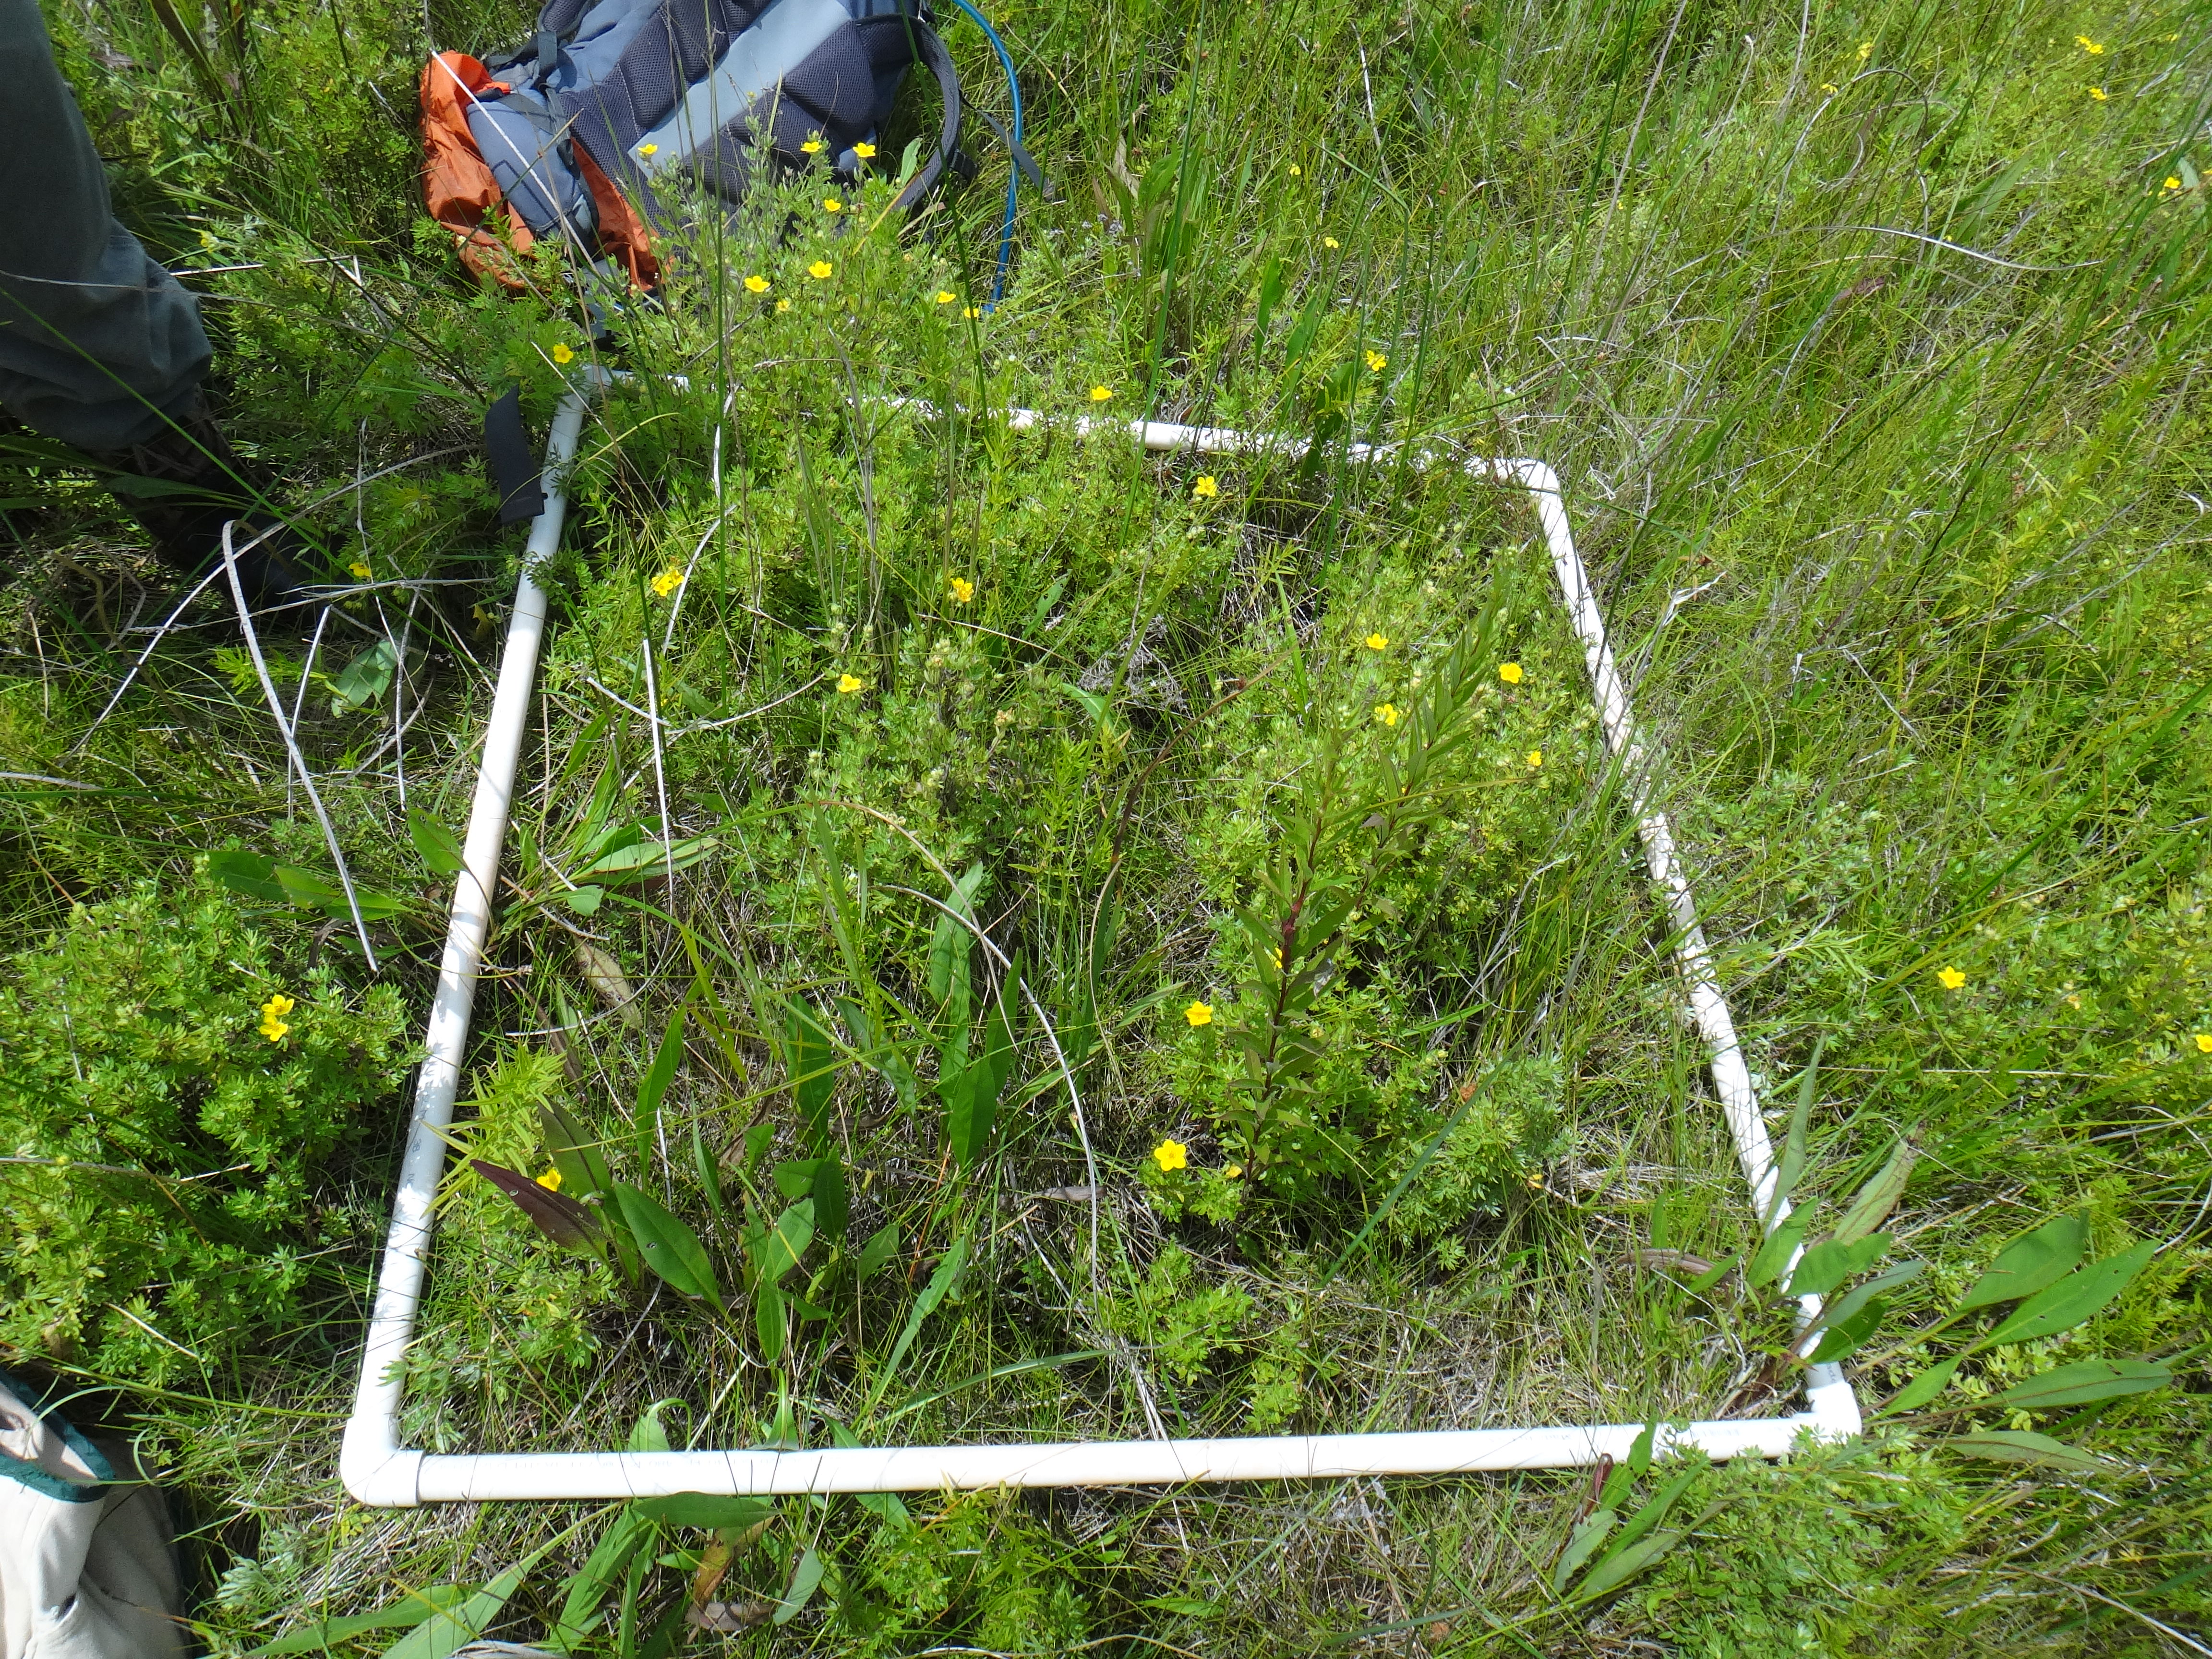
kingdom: Plantae
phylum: Tracheophyta
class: Magnoliopsida
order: Ericales
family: Primulaceae
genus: Lysimachia
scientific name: Lysimachia quadriflora
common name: Four-flowered loosestrife
